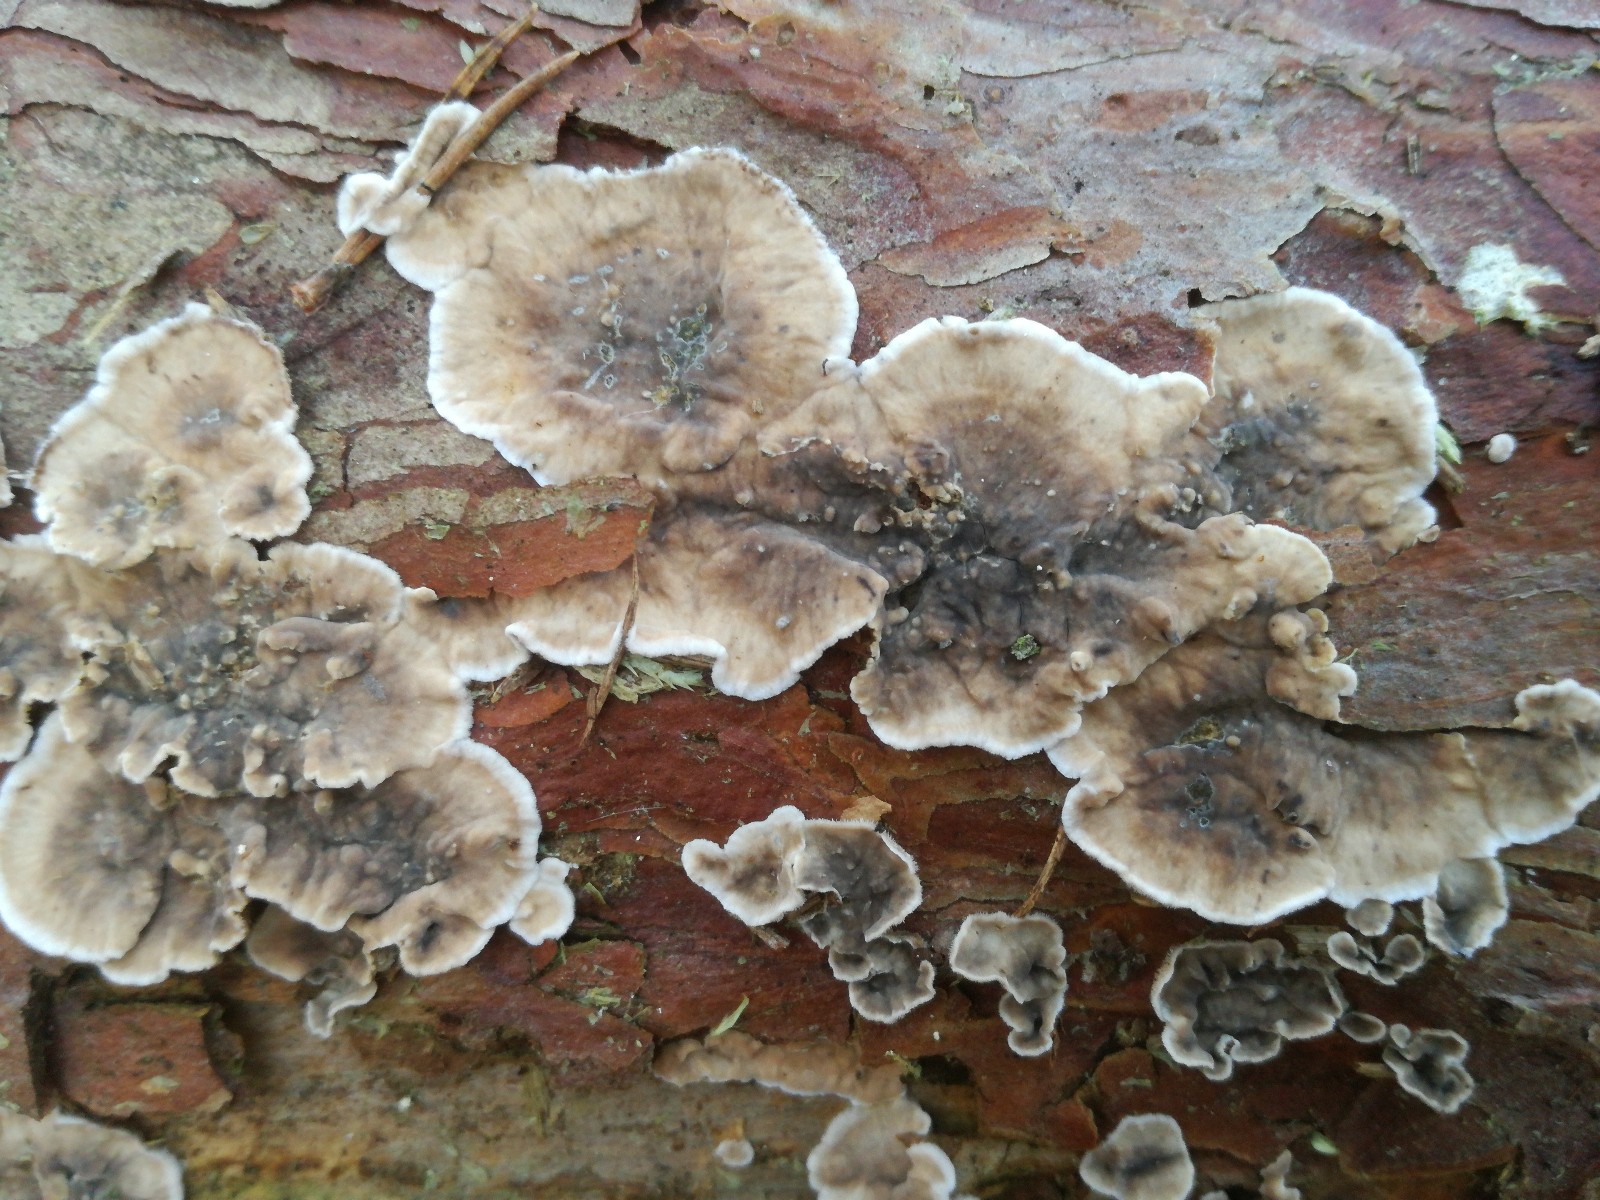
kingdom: Fungi
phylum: Basidiomycota
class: Agaricomycetes
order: Russulales
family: Stereaceae
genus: Stereum
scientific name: Stereum sanguinolentum
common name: blødende lædersvamp
